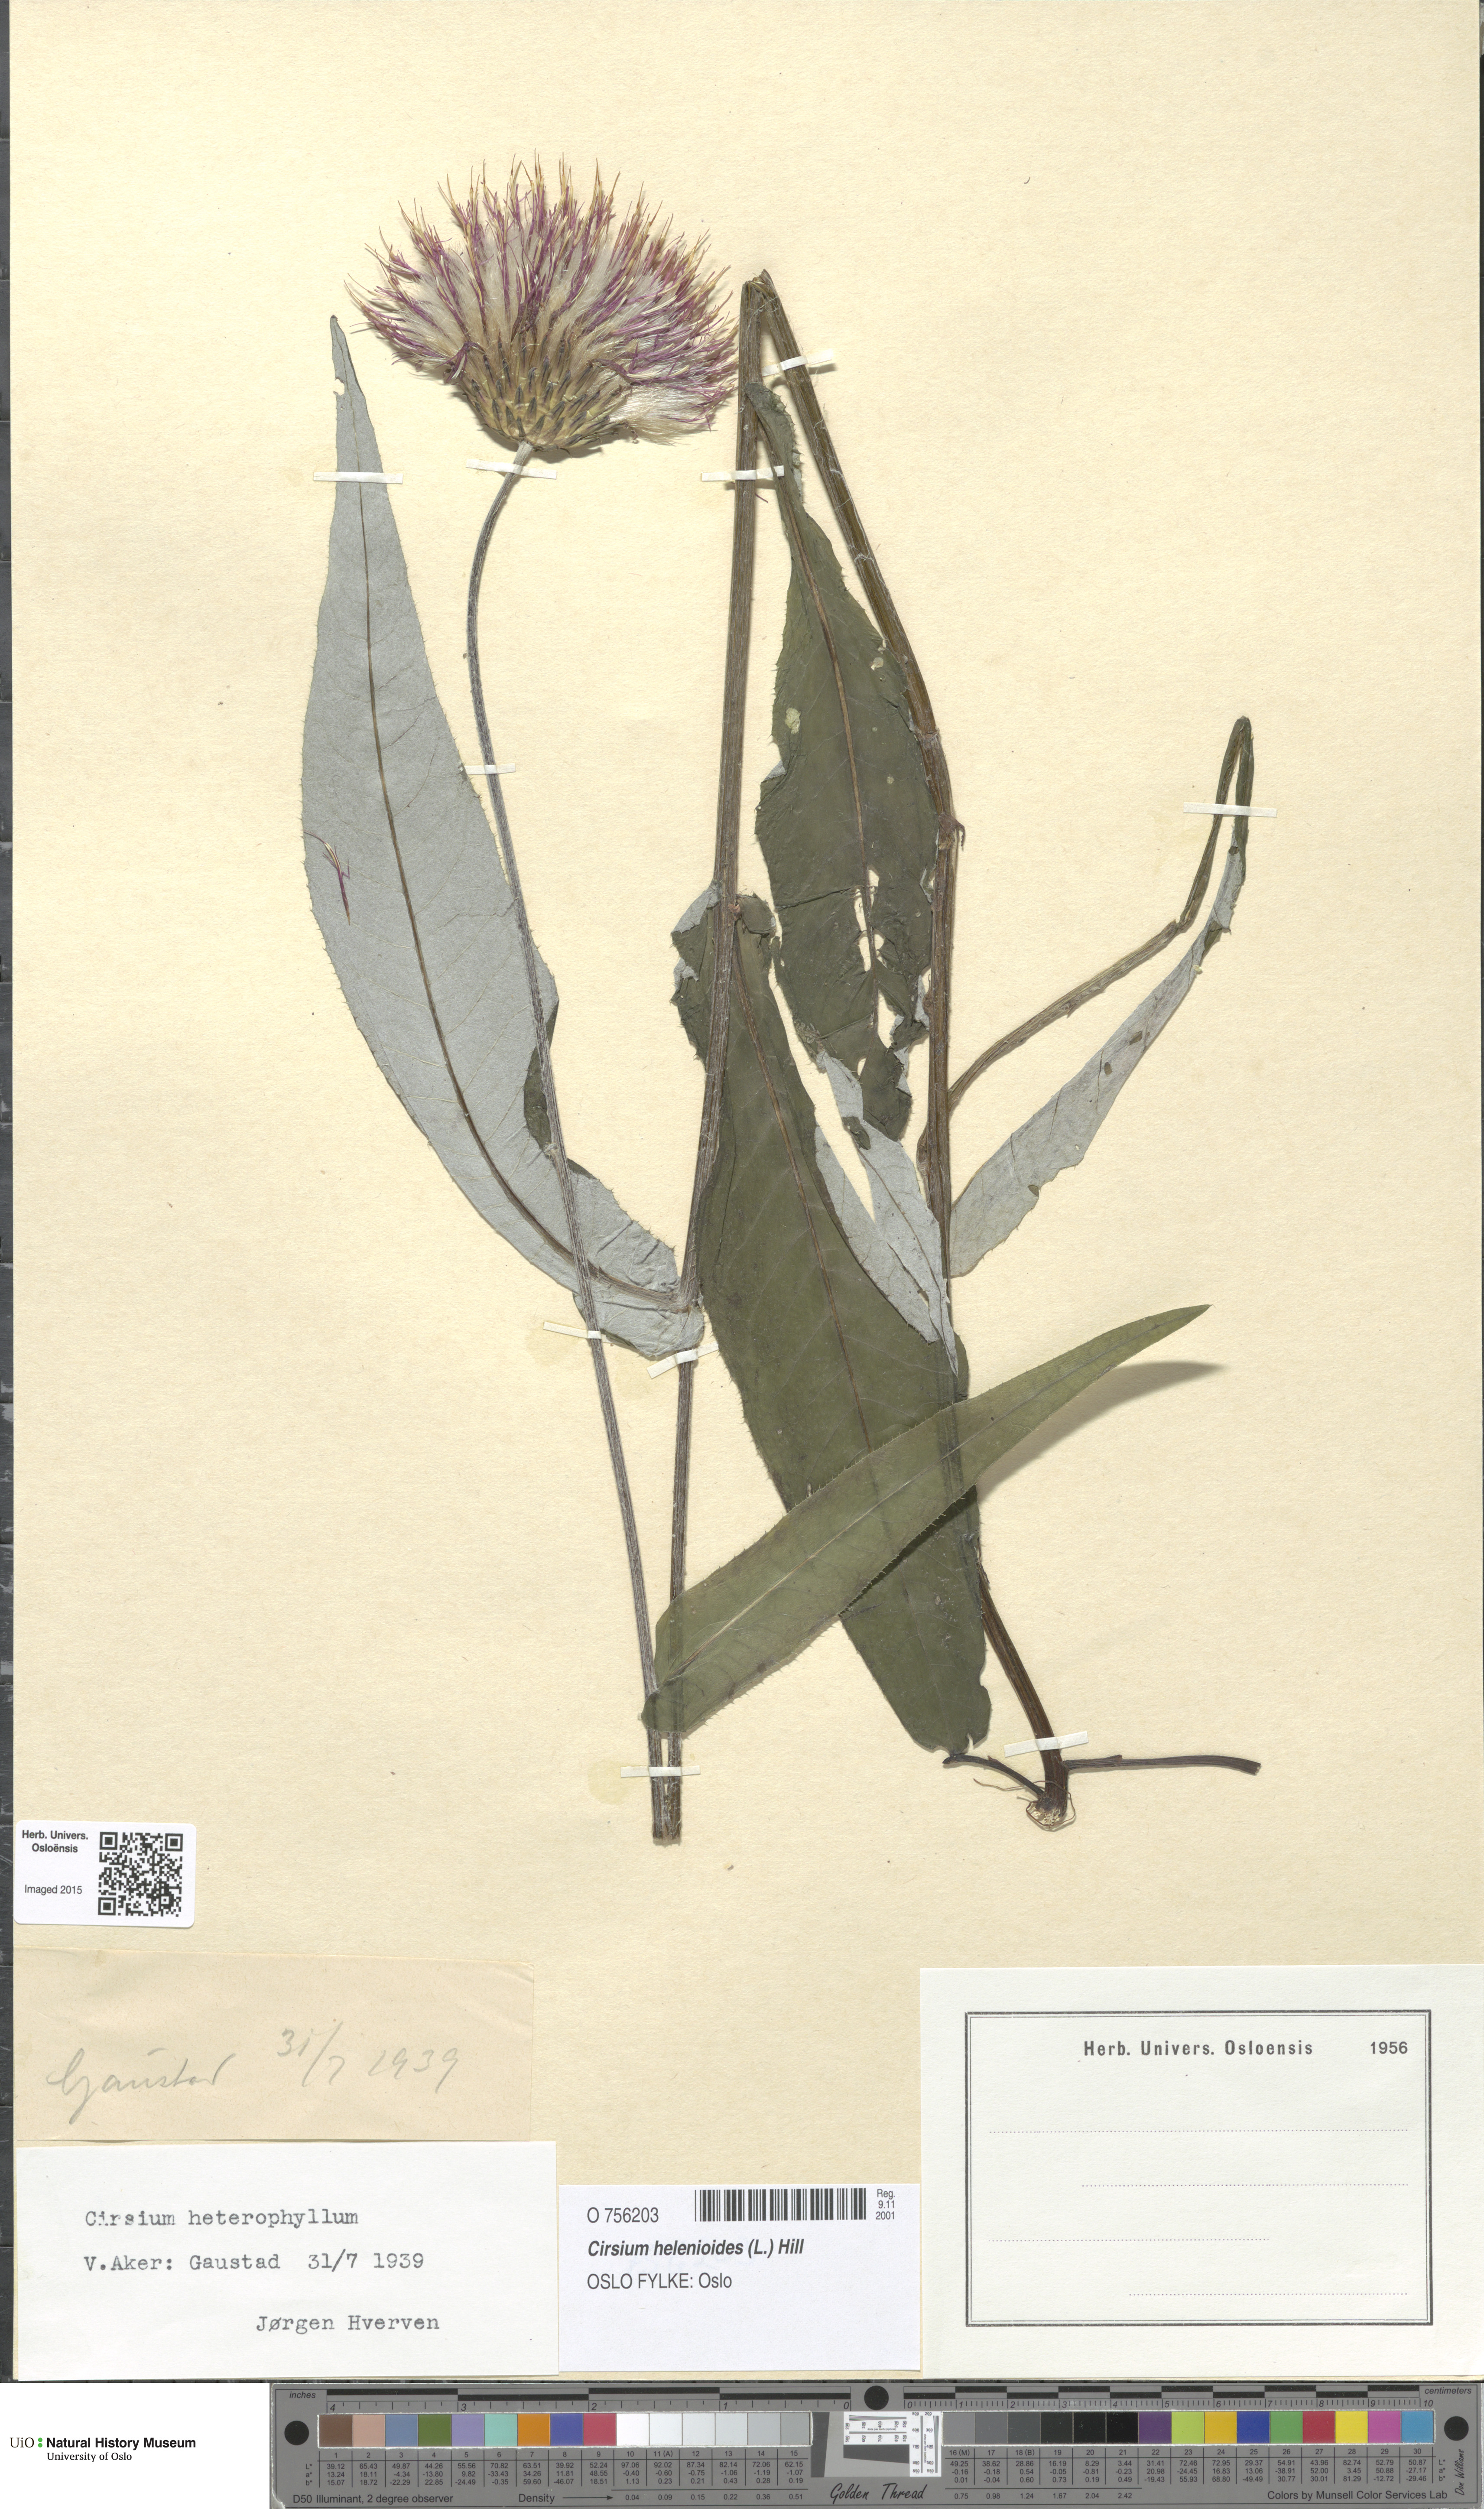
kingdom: Plantae
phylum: Tracheophyta
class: Magnoliopsida
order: Asterales
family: Asteraceae
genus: Cirsium
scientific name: Cirsium heterophyllum
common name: Melancholy thistle
